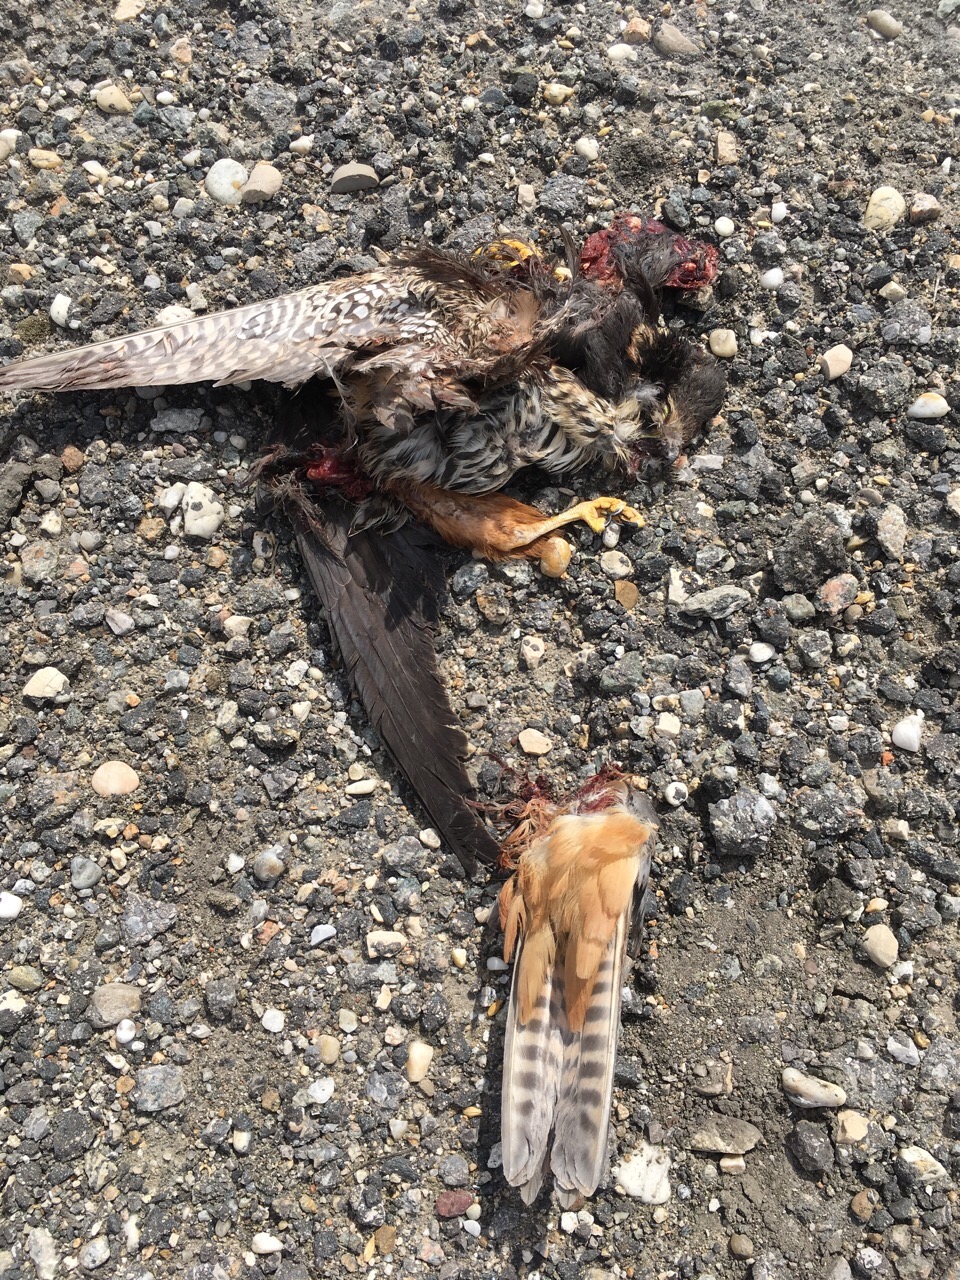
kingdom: Animalia
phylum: Chordata
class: Aves
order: Falconiformes
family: Falconidae
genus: Falco
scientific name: Falco subbuteo
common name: Eurasian hobby
